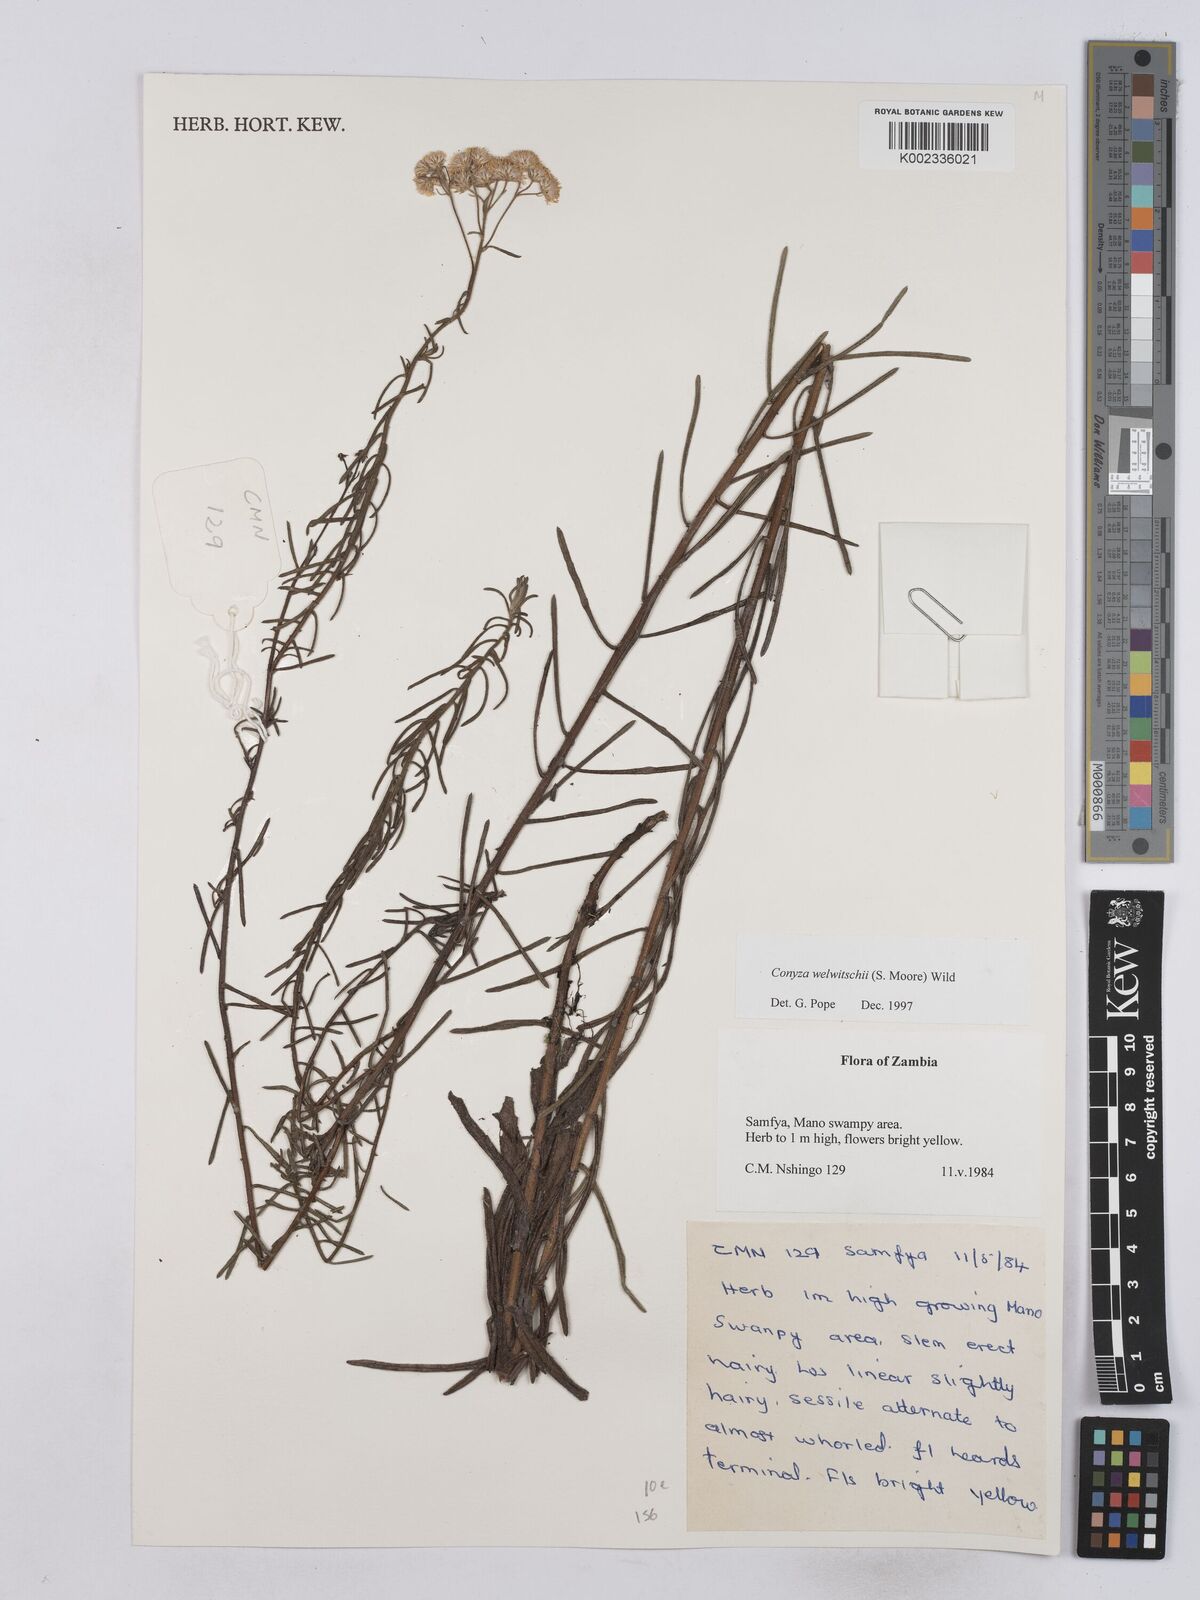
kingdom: Plantae
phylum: Tracheophyta
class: Magnoliopsida
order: Asterales
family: Asteraceae
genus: Nidorella
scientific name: Nidorella welwitschii
